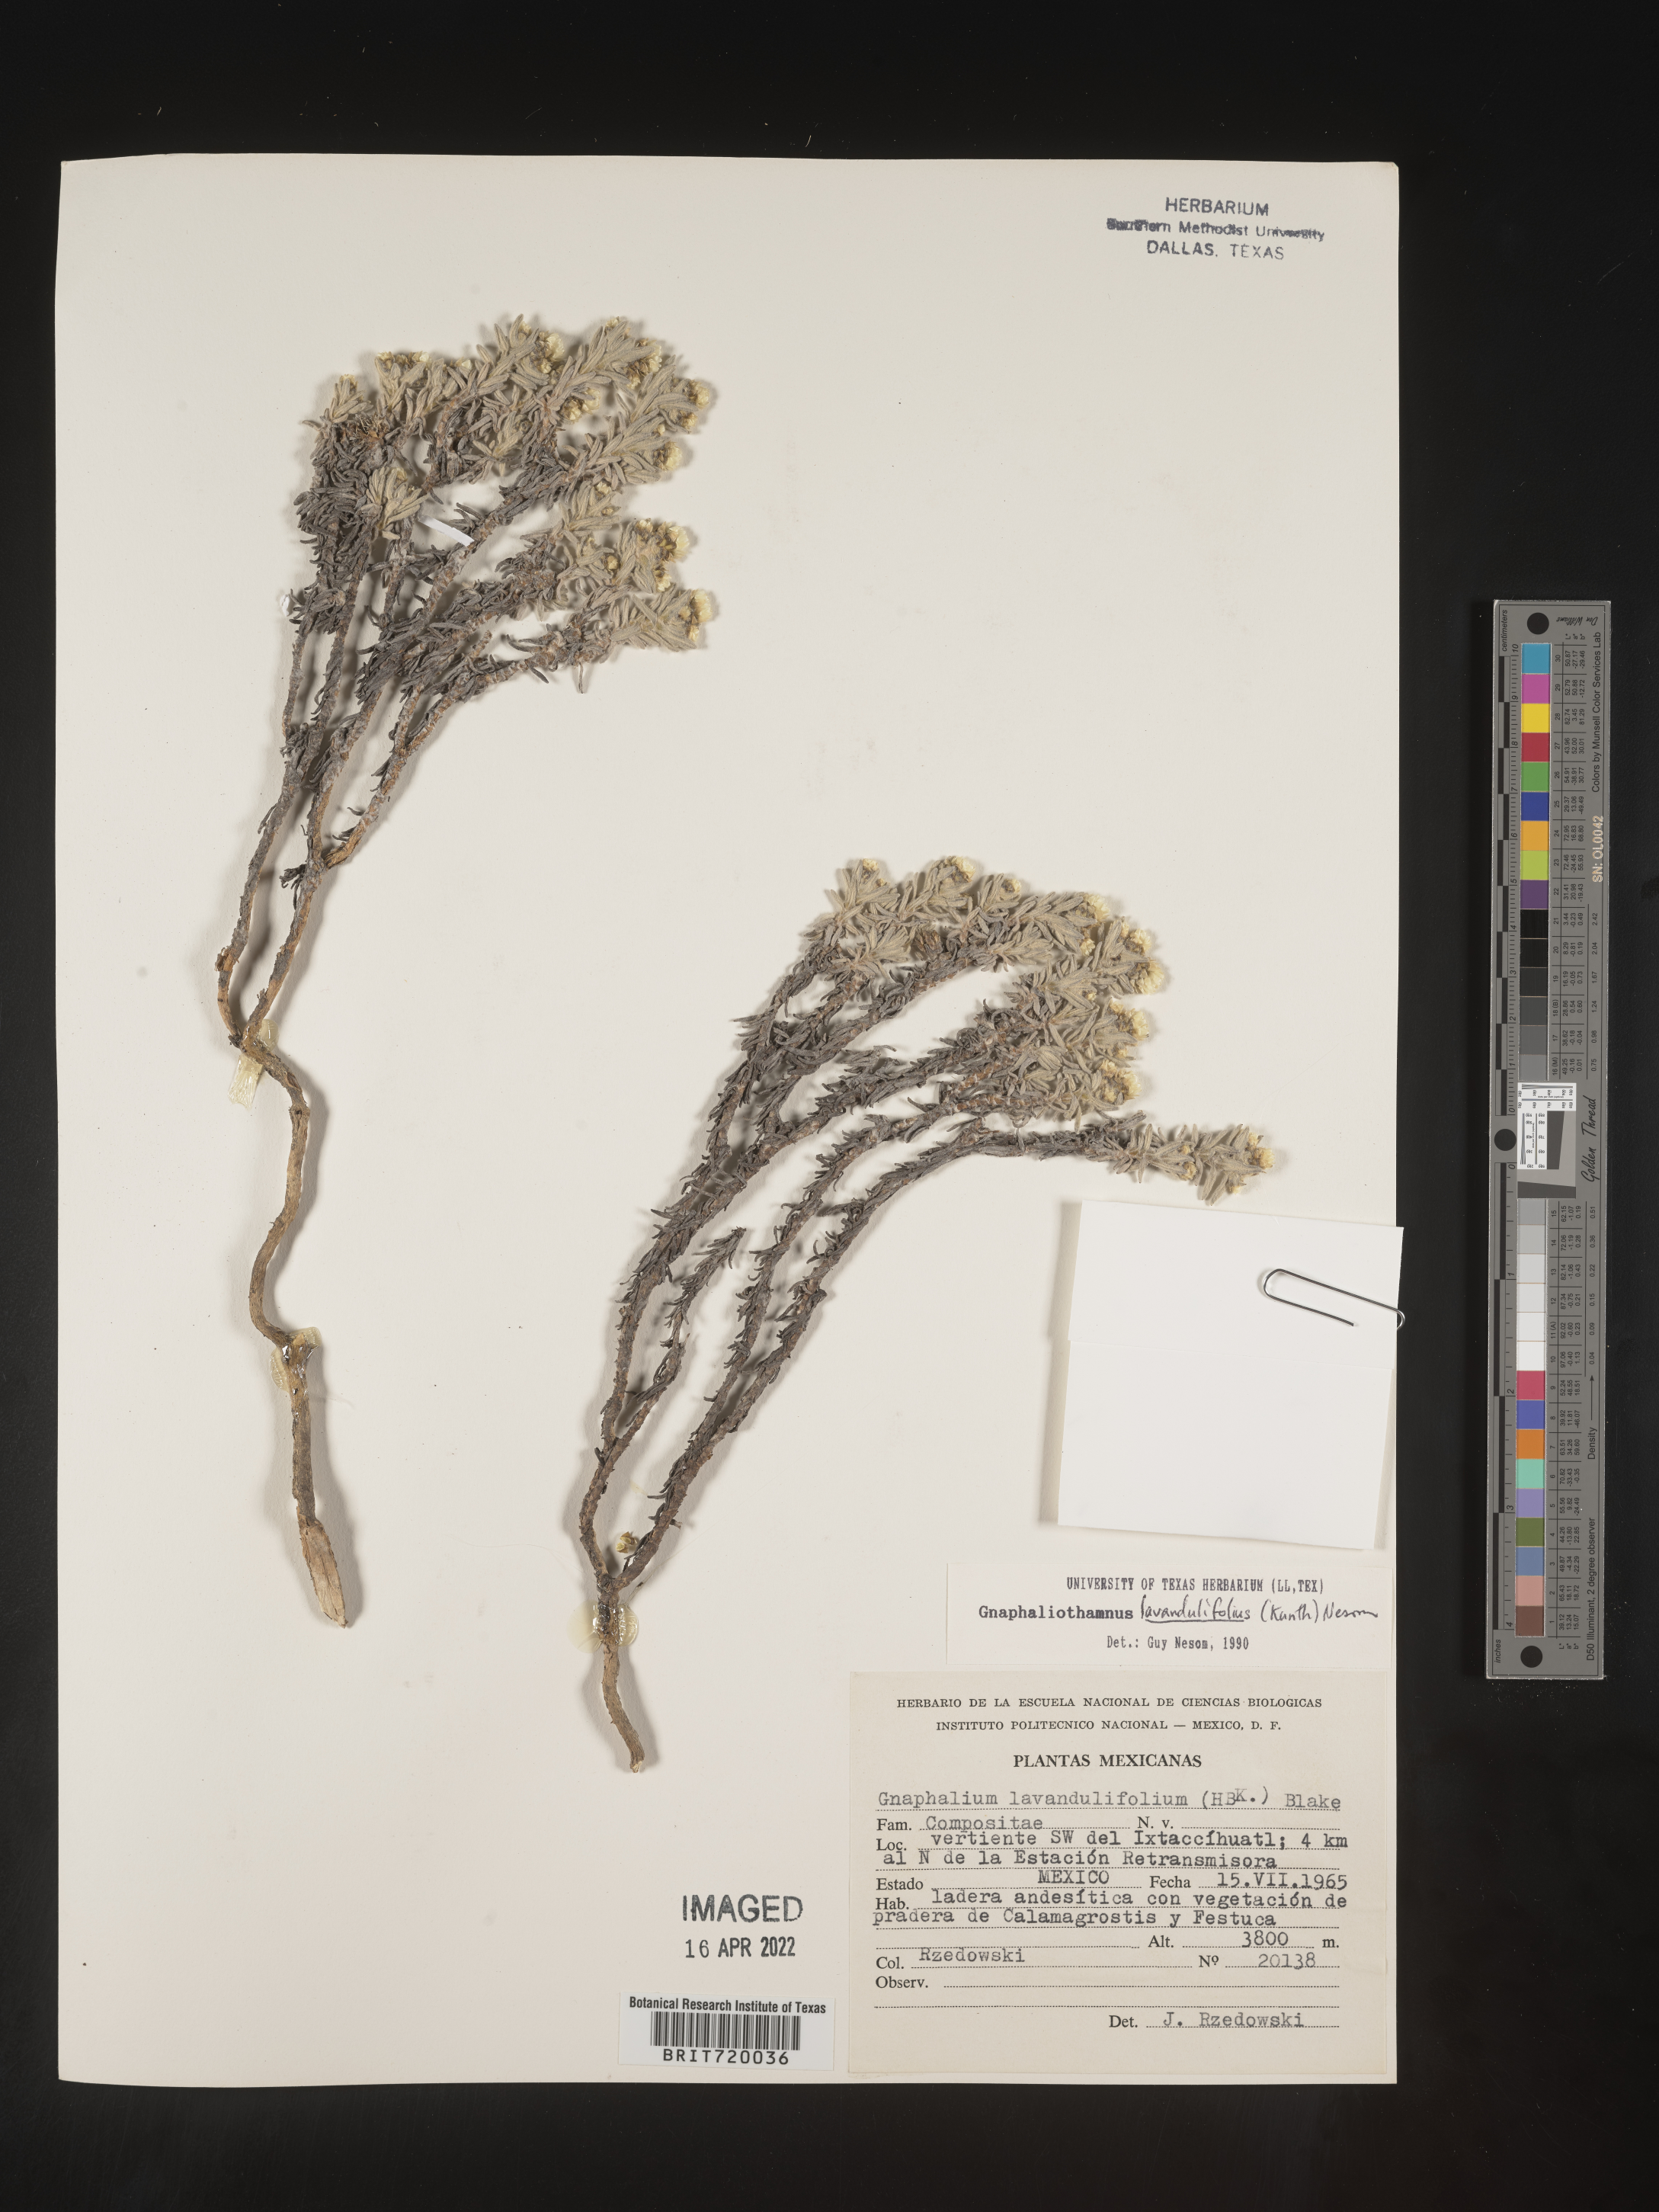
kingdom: Plantae
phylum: Tracheophyta
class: Magnoliopsida
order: Asterales
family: Asteraceae
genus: Gnaphaliothamnus
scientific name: Gnaphaliothamnus
